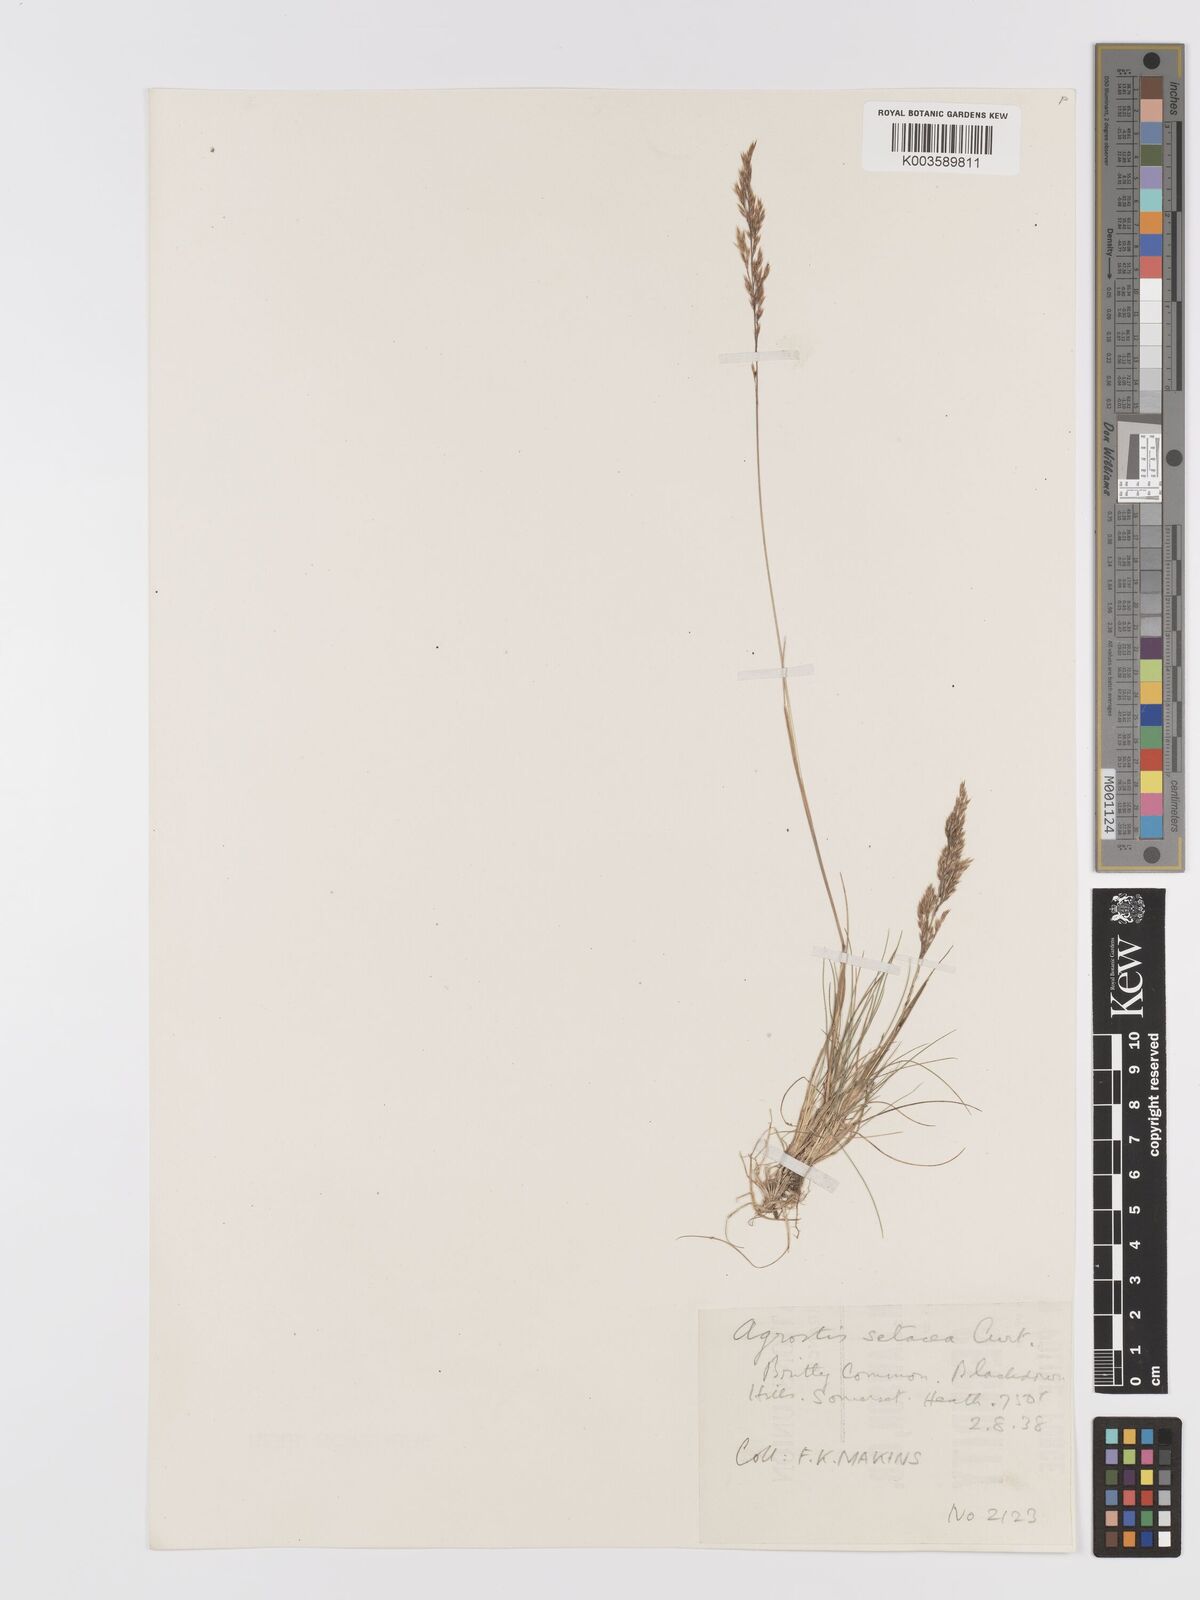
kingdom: Plantae
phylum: Tracheophyta
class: Liliopsida
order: Poales
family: Poaceae
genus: Alpagrostis
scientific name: Alpagrostis setacea
